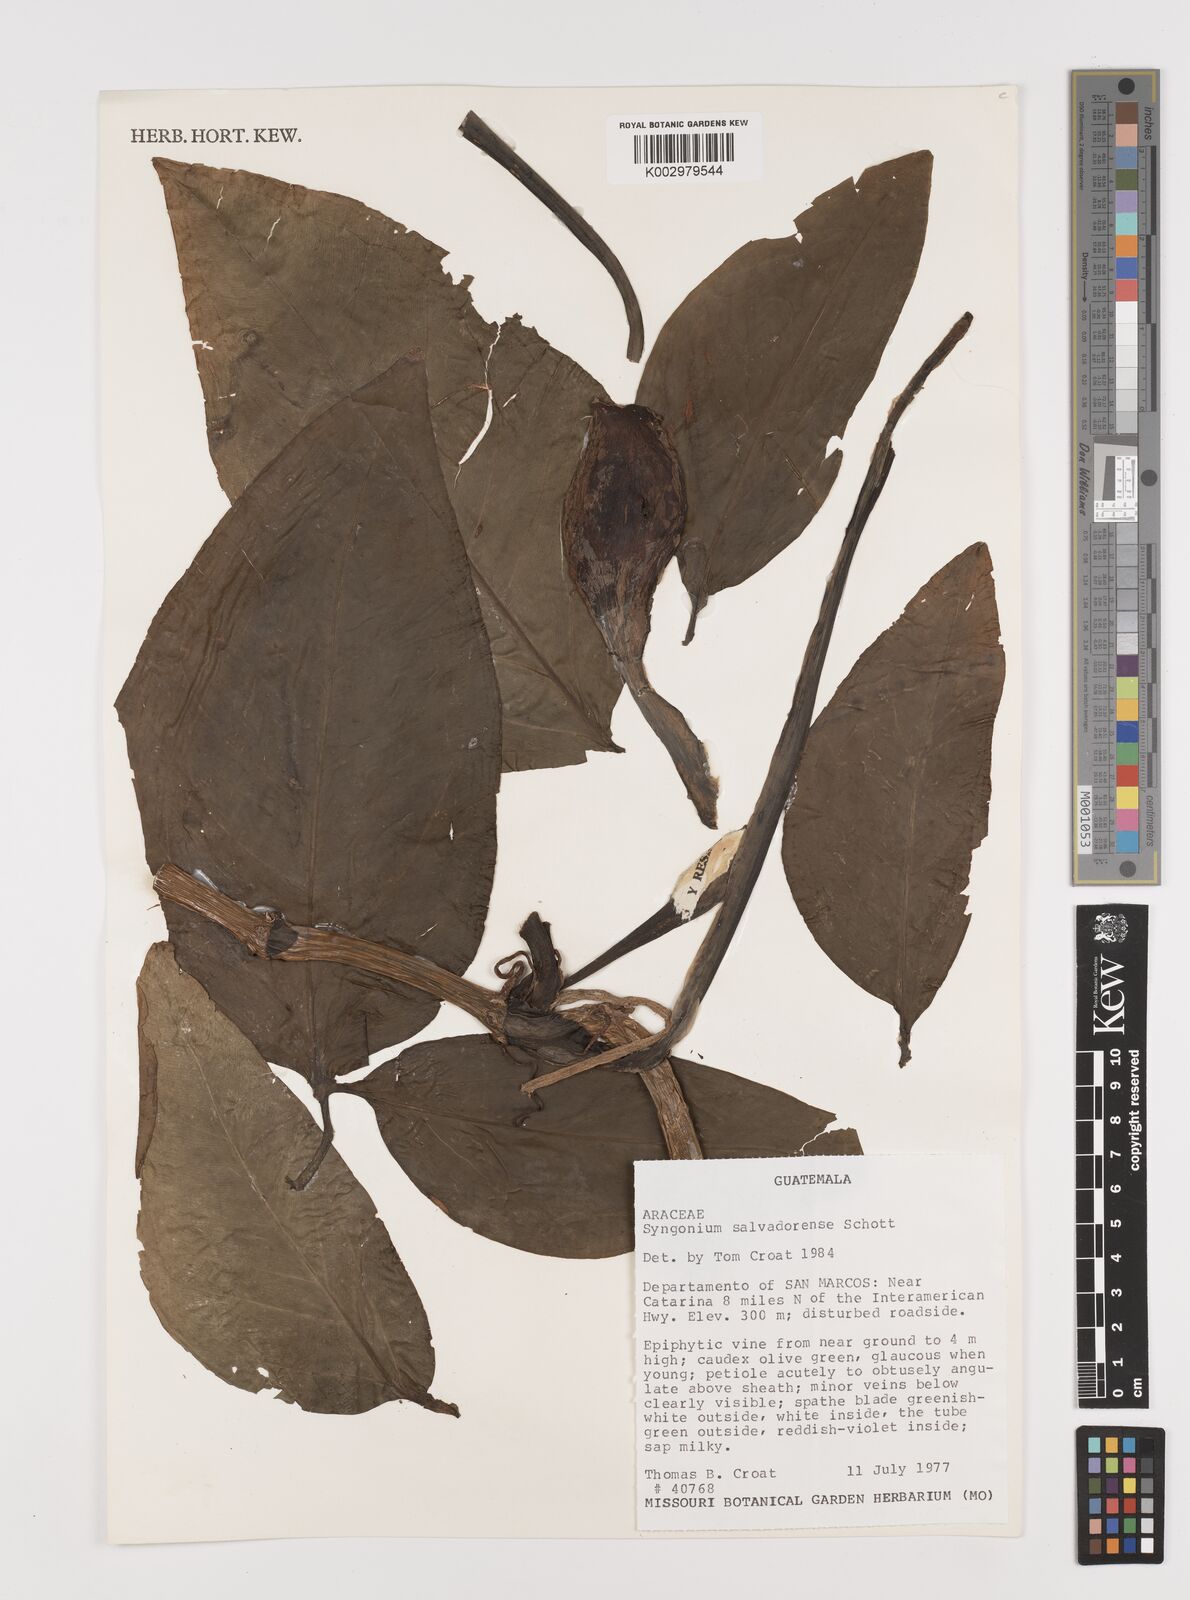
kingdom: Plantae
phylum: Tracheophyta
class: Liliopsida
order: Alismatales
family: Araceae
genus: Syngonium
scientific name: Syngonium salvadorense
